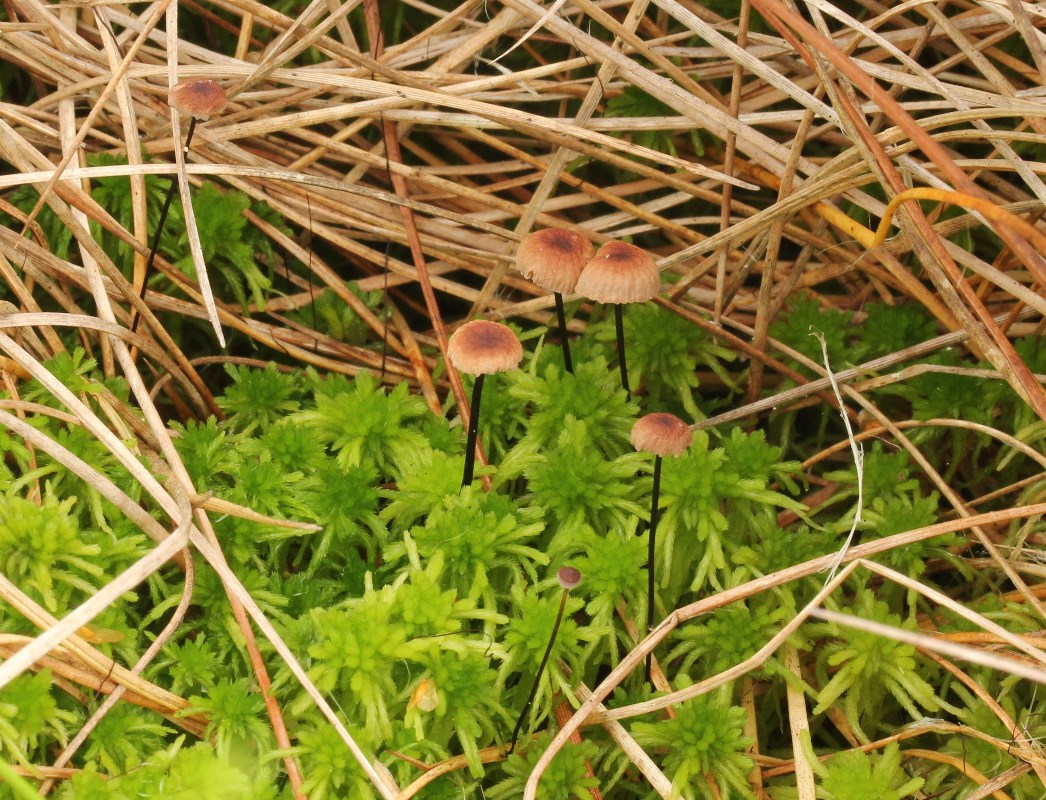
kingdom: Fungi
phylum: Basidiomycota
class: Agaricomycetes
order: Agaricales
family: Omphalotaceae
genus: Gymnopus
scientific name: Gymnopus androsaceus
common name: trådstokket fladhat
